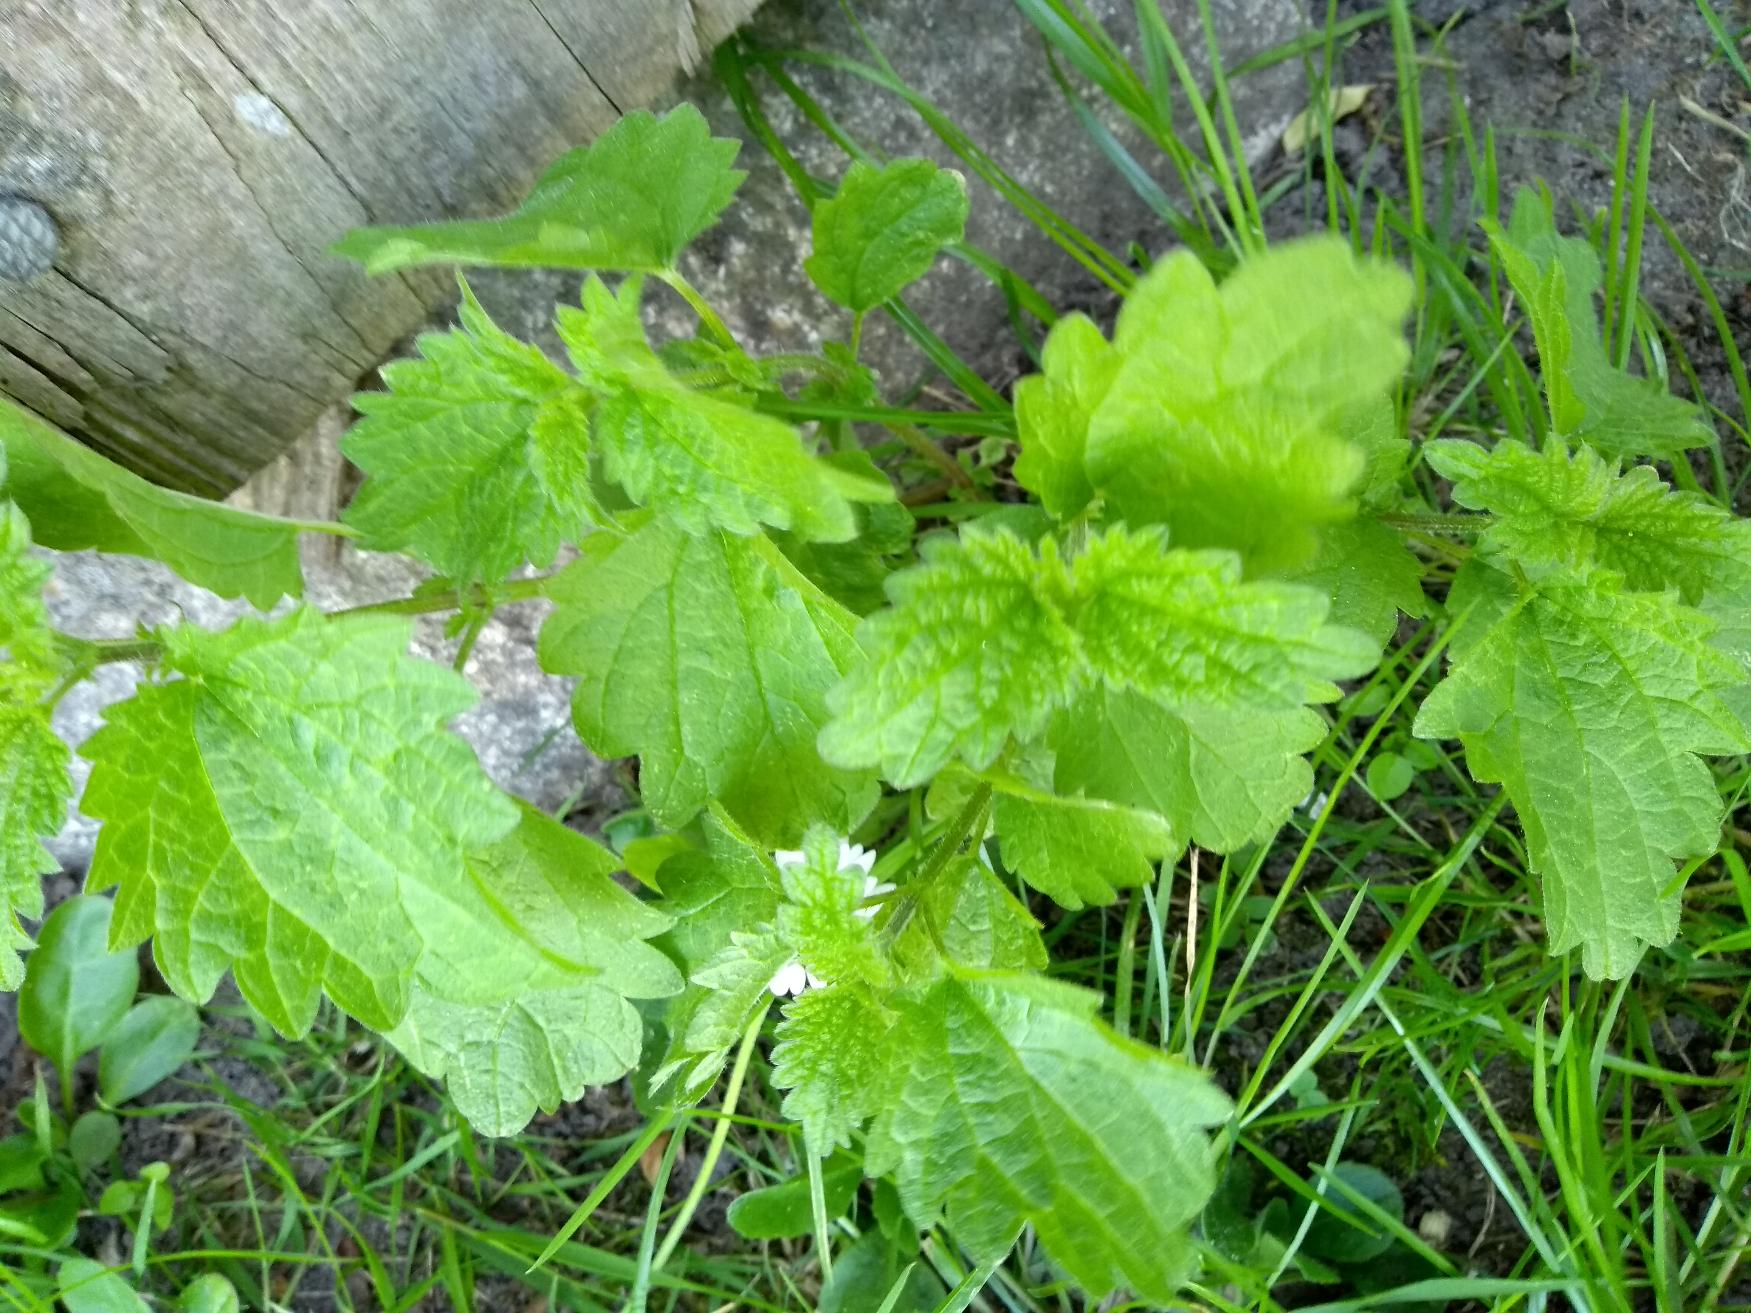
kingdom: Plantae
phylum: Tracheophyta
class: Magnoliopsida
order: Rosales
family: Urticaceae
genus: Urtica
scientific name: Urtica dioica
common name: Stor nælde
